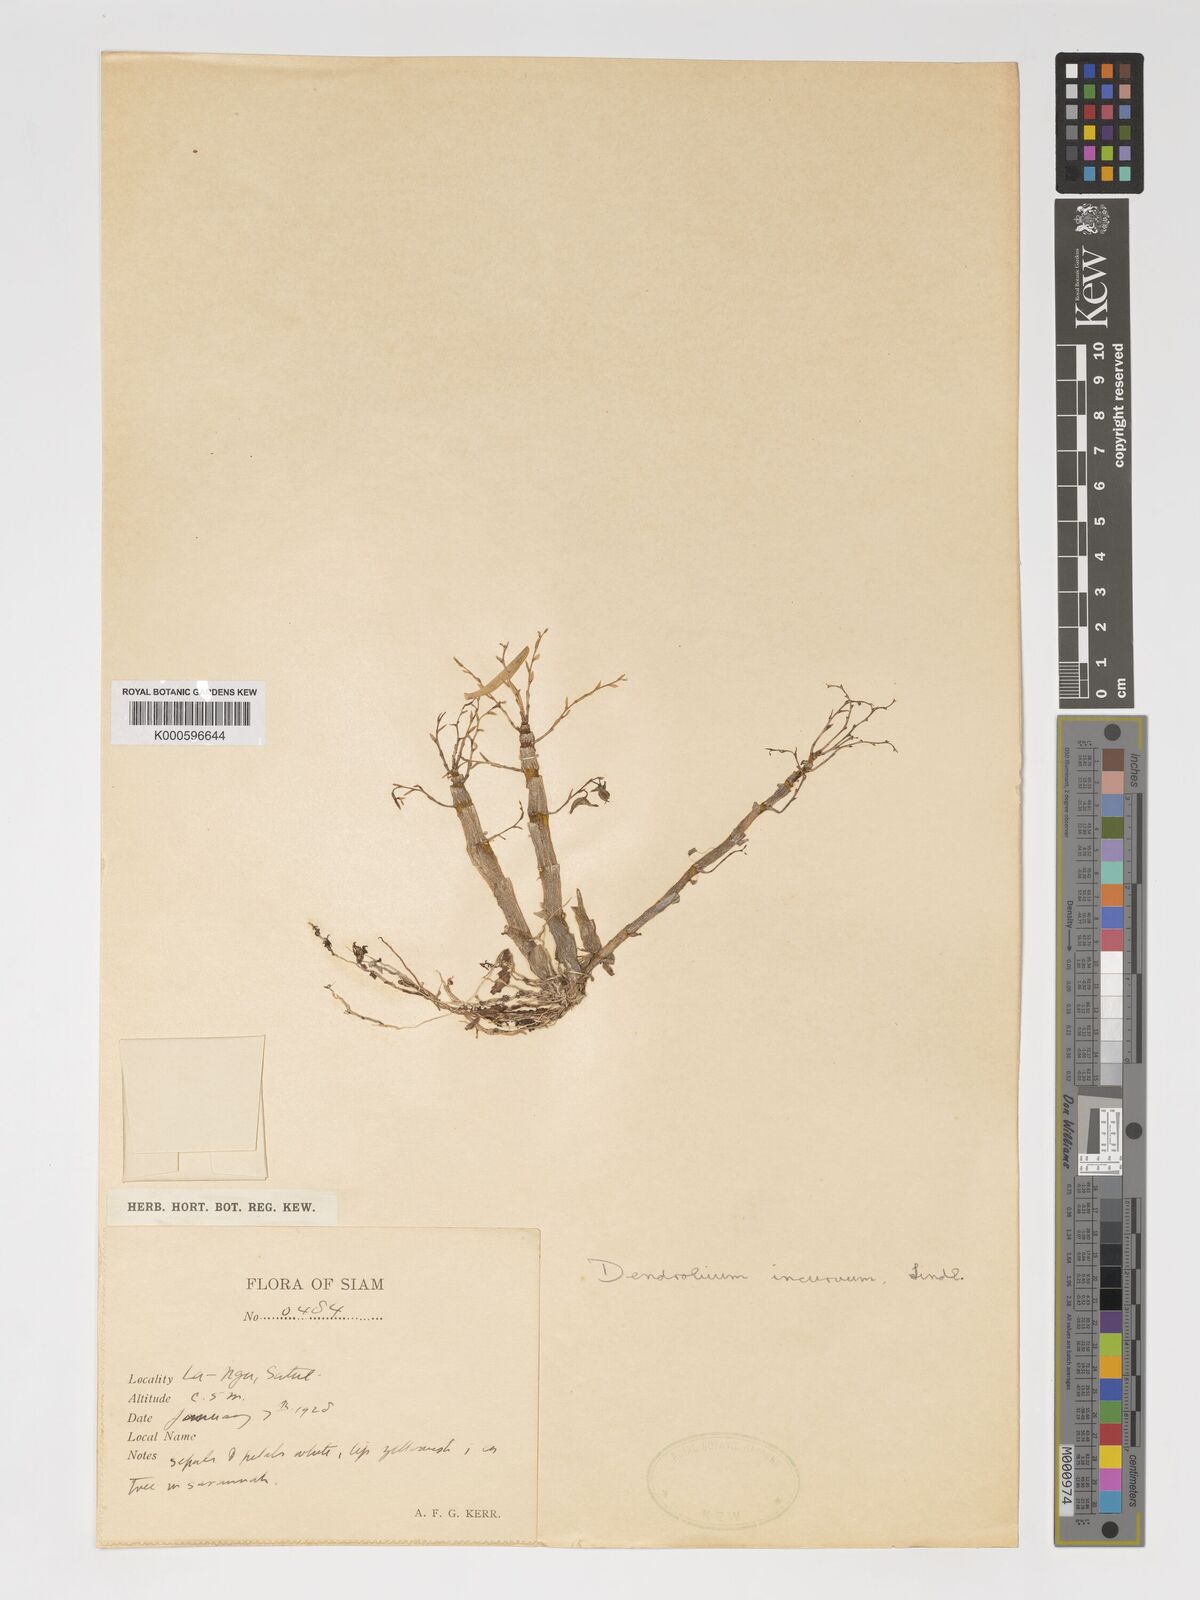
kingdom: Plantae
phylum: Tracheophyta
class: Liliopsida
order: Asparagales
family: Orchidaceae
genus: Dendrobium
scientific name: Dendrobium incurvum
